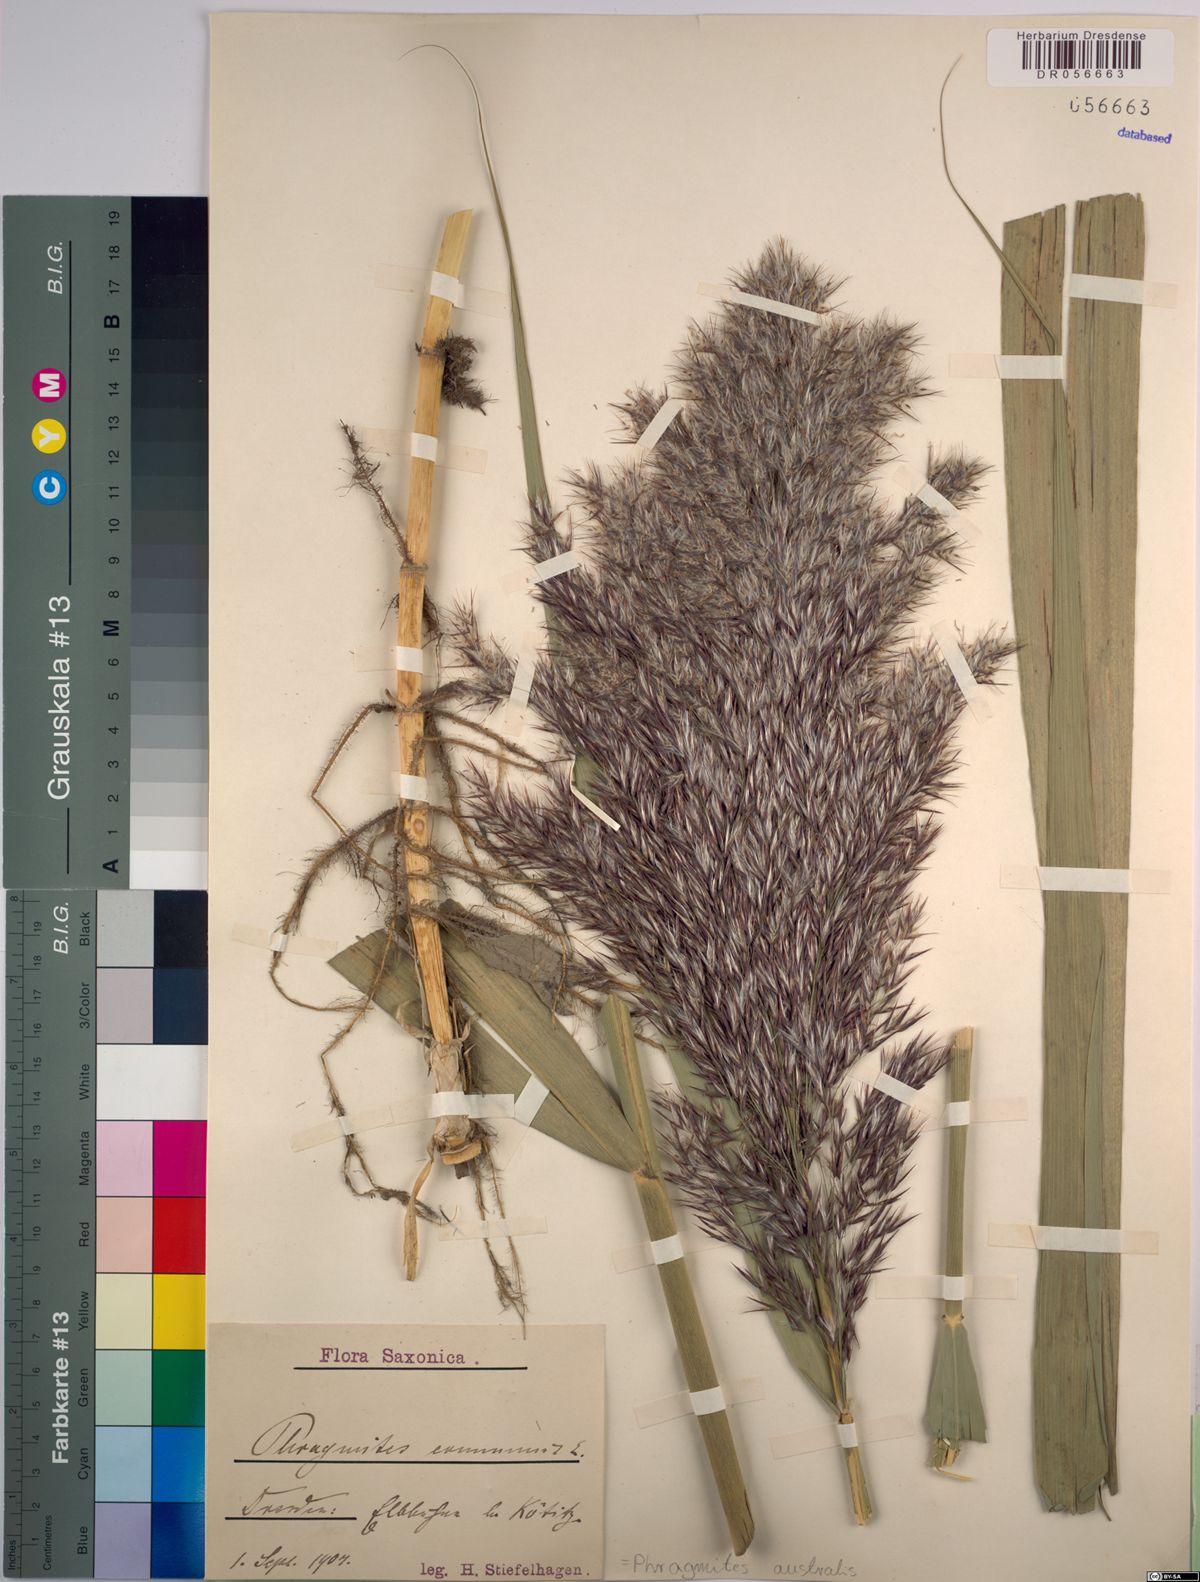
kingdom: Plantae
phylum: Tracheophyta
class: Liliopsida
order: Poales
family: Poaceae
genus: Phragmites
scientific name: Phragmites australis
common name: Common reed
